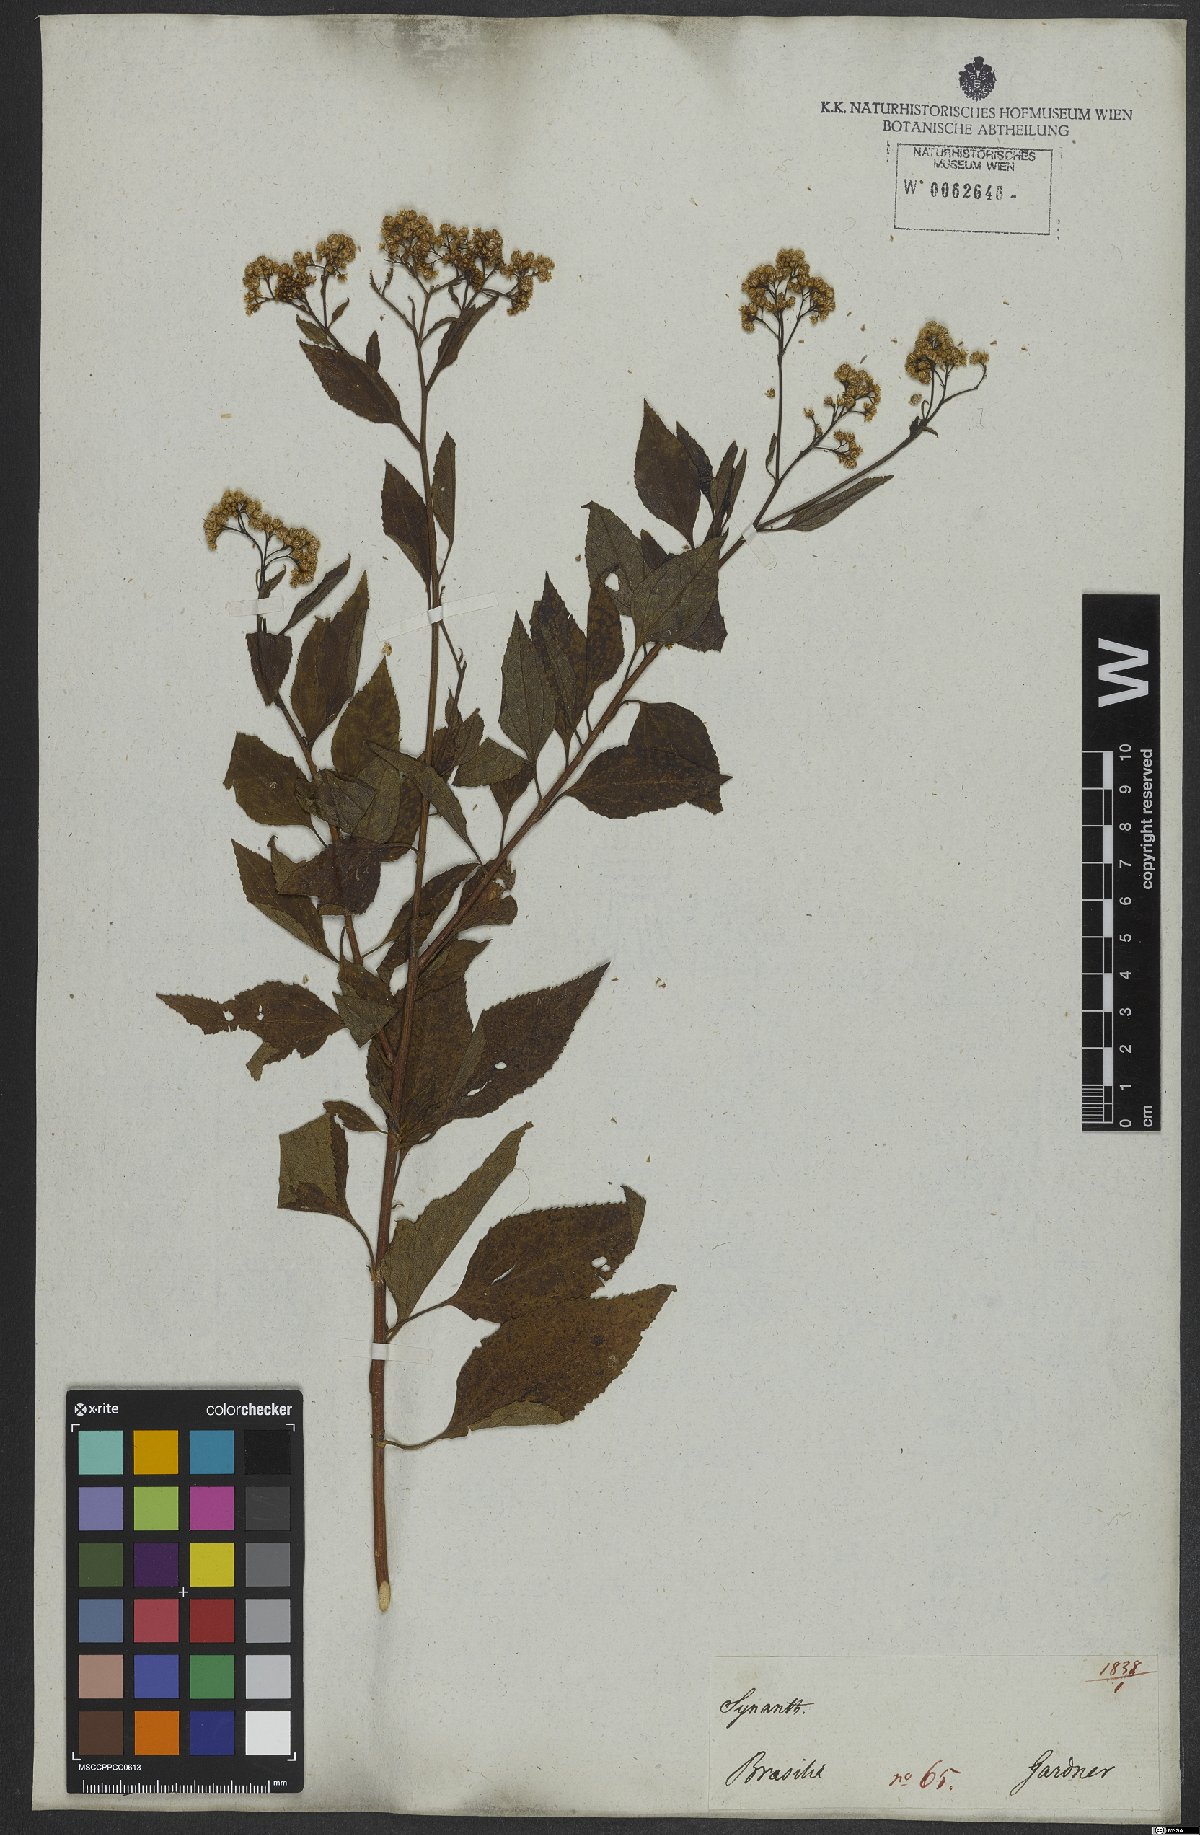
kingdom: Plantae
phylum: Tracheophyta
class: Magnoliopsida
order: Asterales
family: Asteraceae
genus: Archibaccharis
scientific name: Archibaccharis vulneraria
